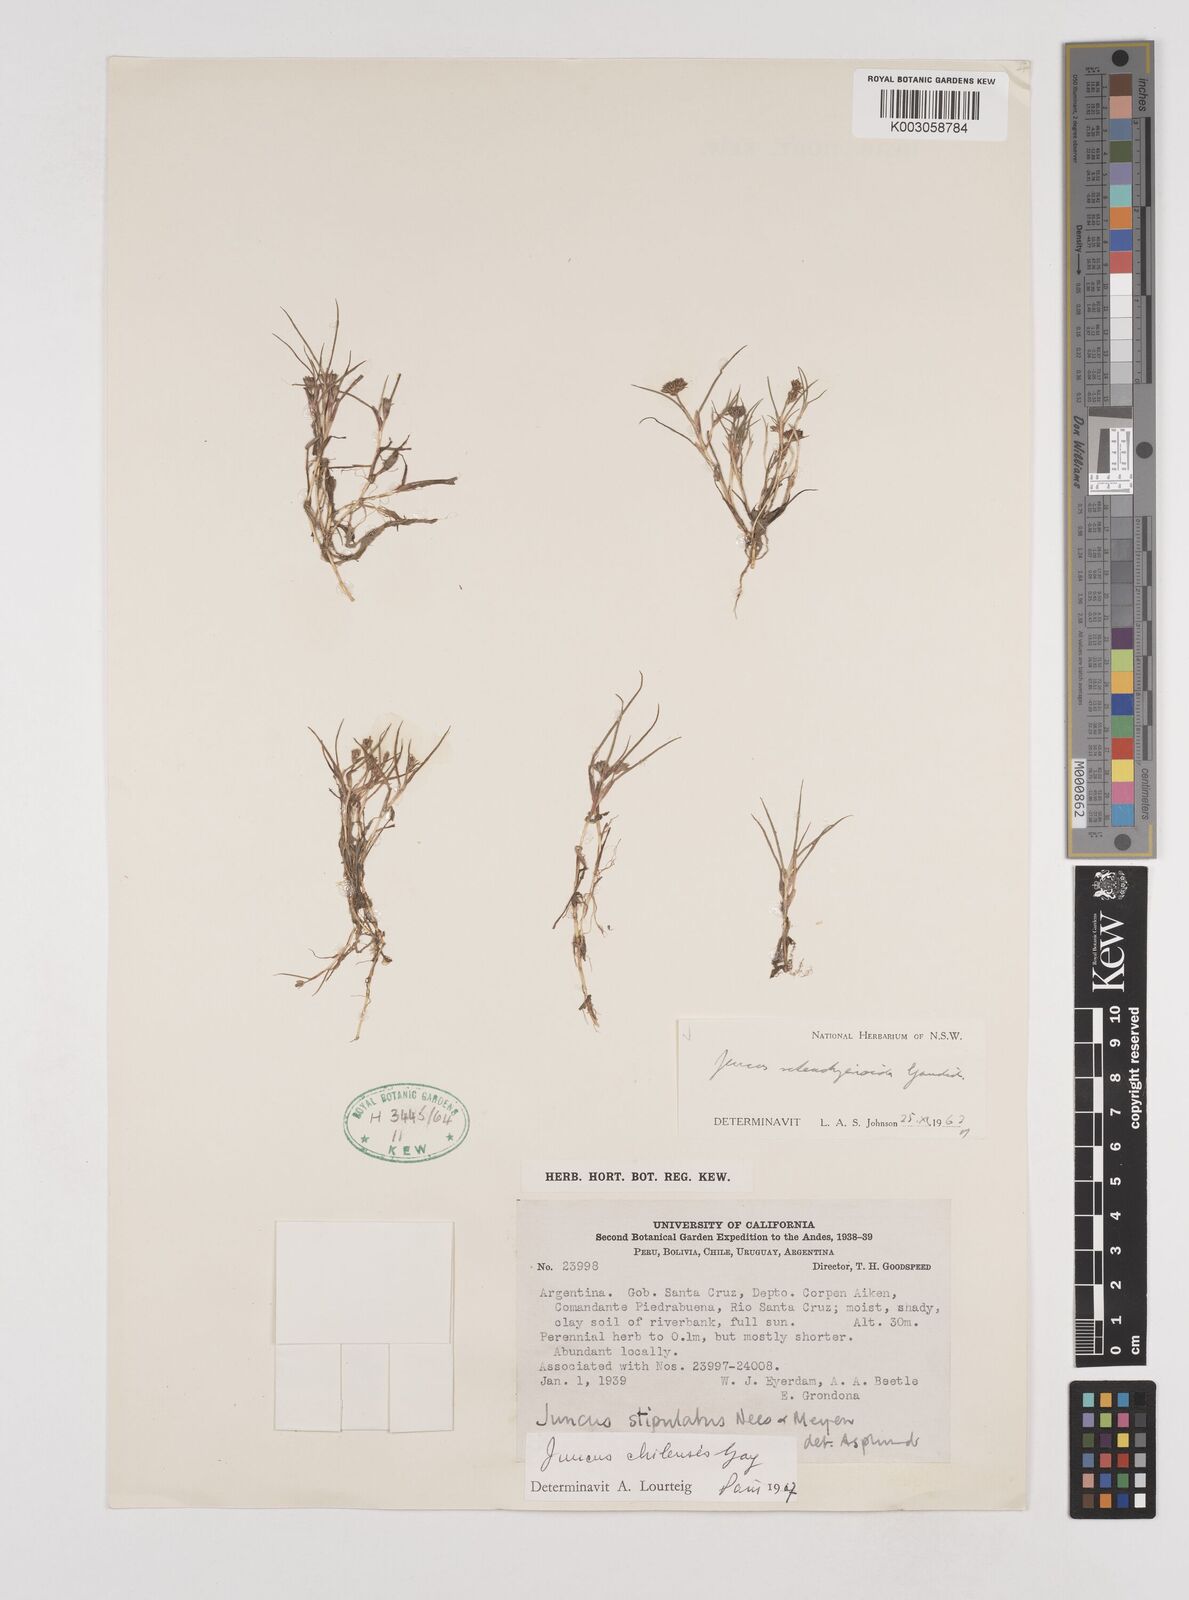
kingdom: Plantae
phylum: Tracheophyta
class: Liliopsida
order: Poales
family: Juncaceae
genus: Juncus
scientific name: Juncus scheuchzerioides
